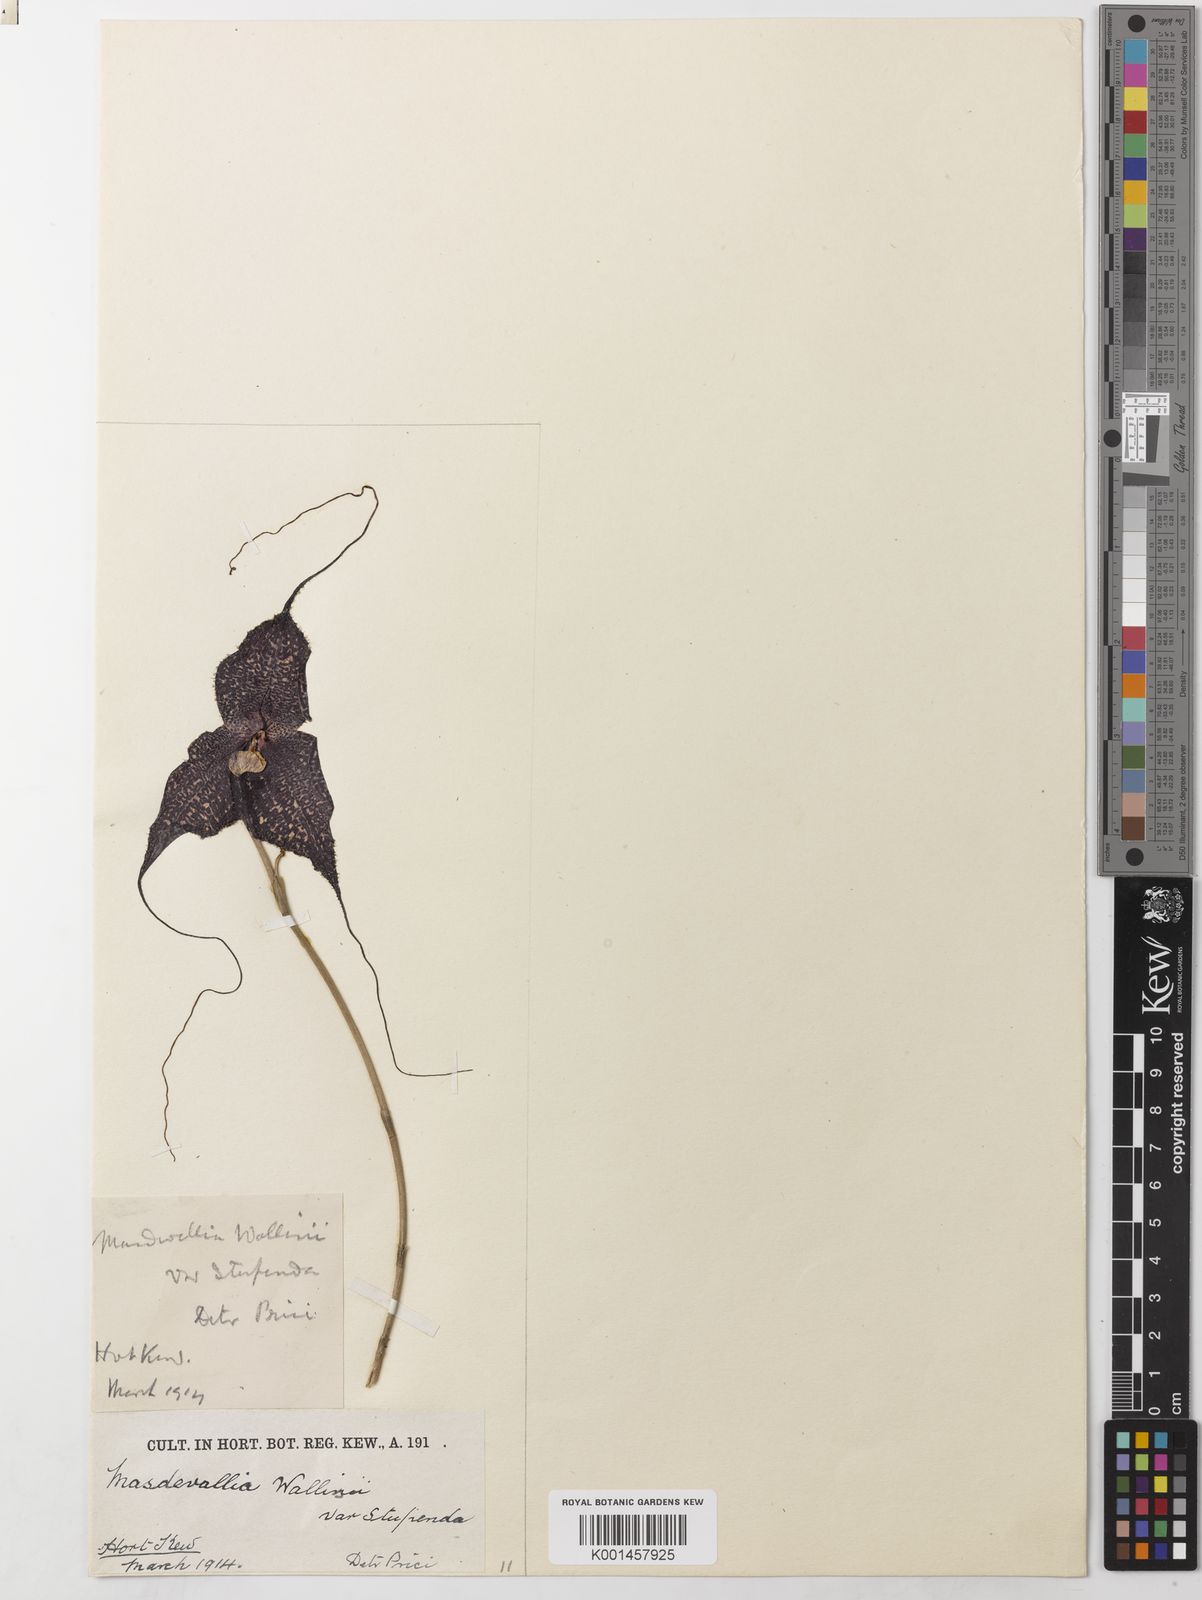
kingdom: Plantae
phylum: Tracheophyta
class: Liliopsida
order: Asparagales
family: Orchidaceae
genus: Dracula
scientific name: Dracula wallisii
